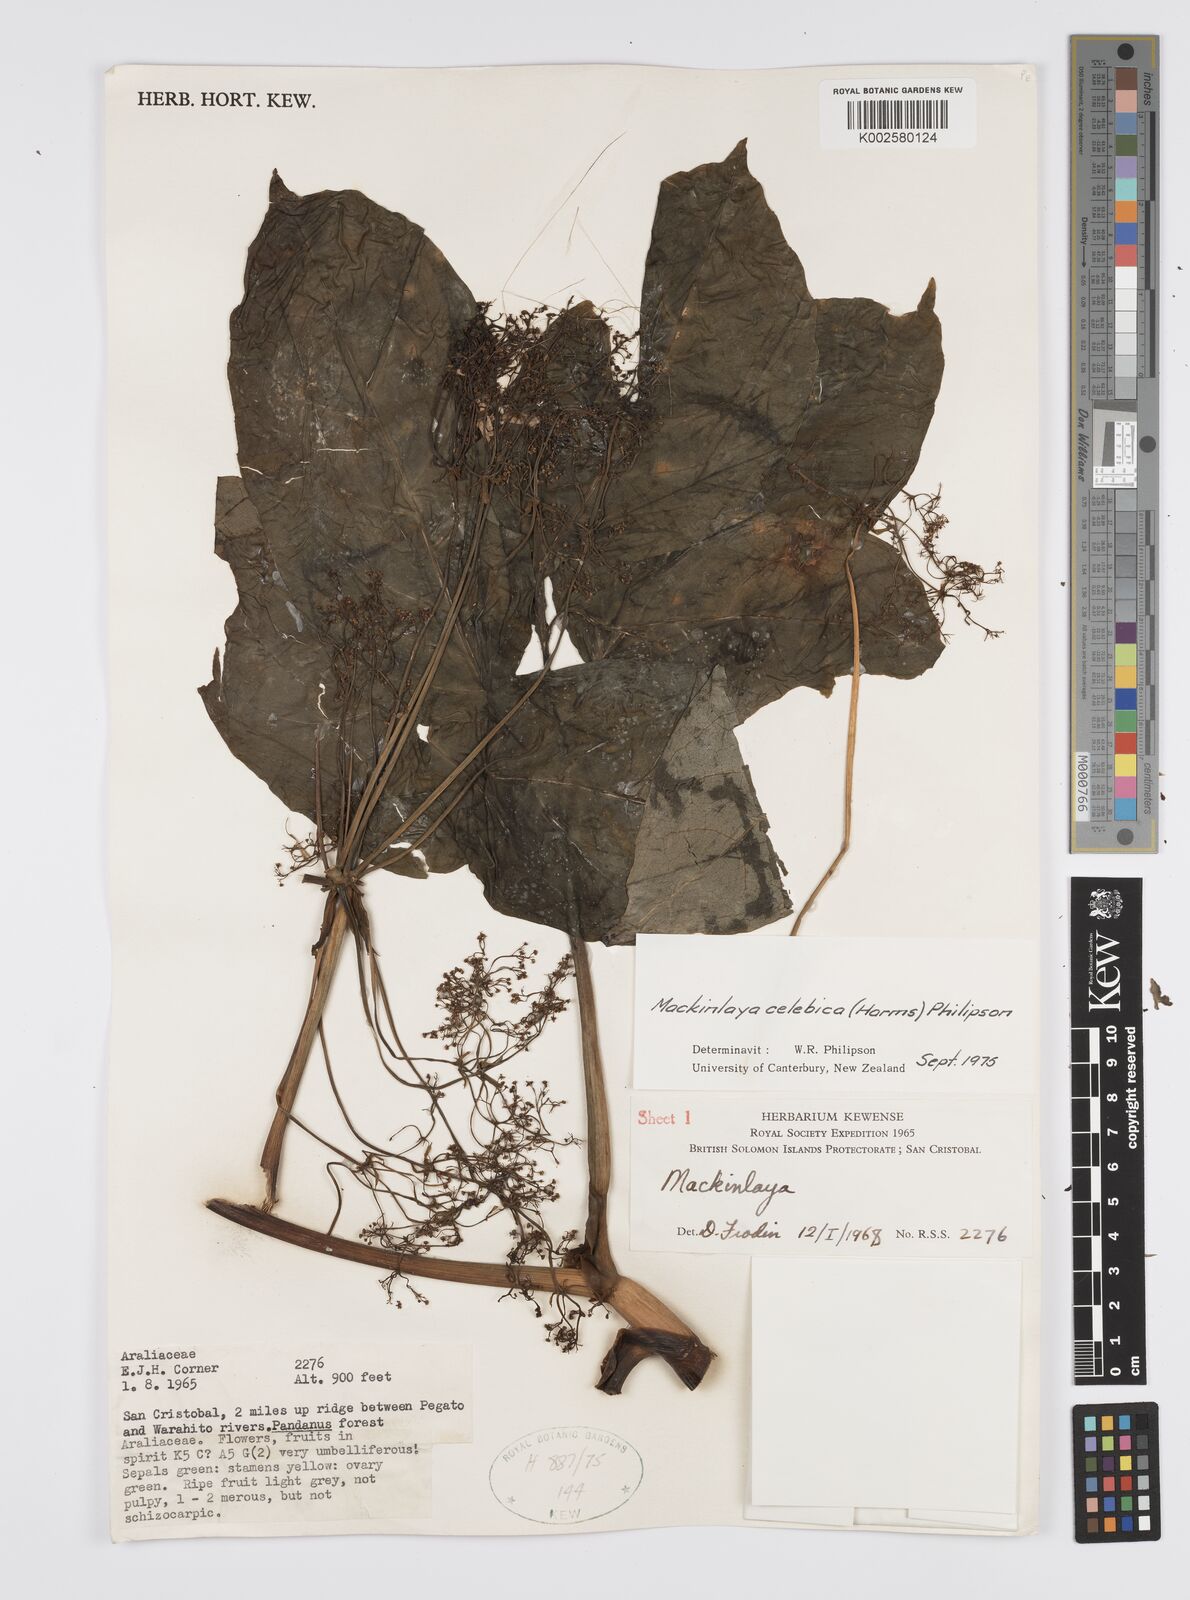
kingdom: Plantae
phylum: Tracheophyta
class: Magnoliopsida
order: Apiales
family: Apiaceae
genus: Mackinlaya
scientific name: Mackinlaya celebica
